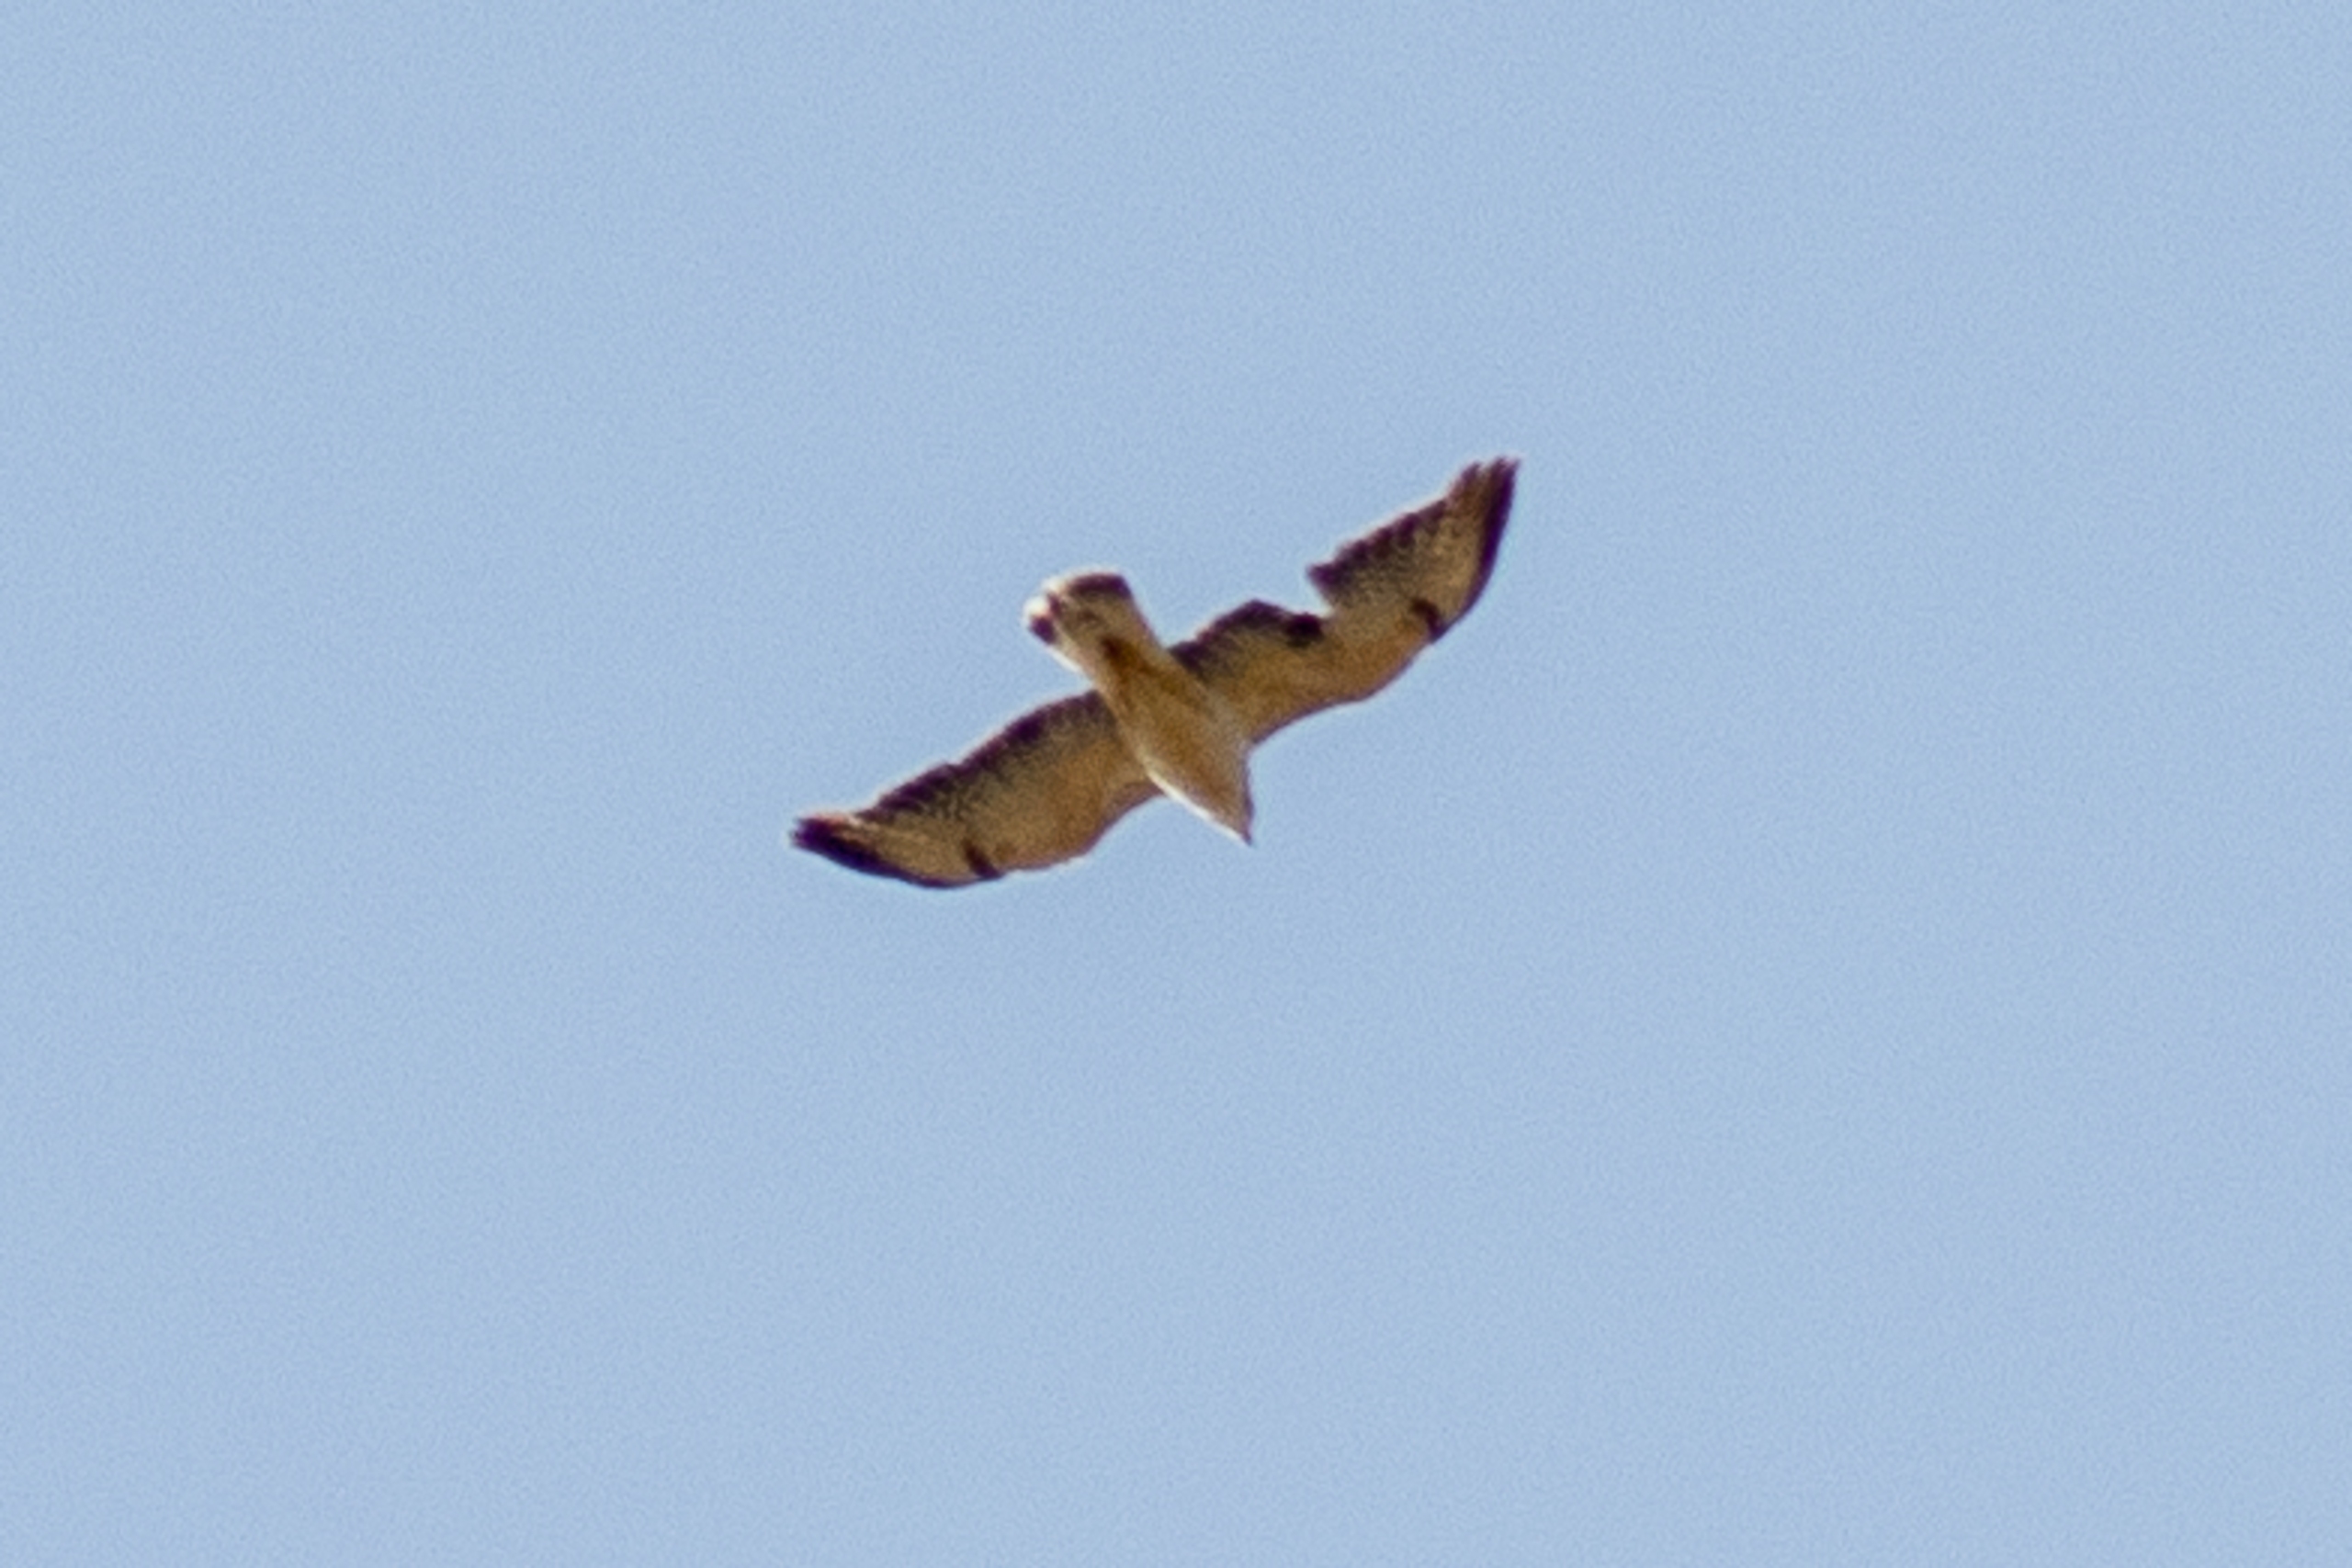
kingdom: Animalia
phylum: Chordata
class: Aves
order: Accipitriformes
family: Accipitridae
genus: Buteo
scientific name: Buteo buteo
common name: Musvåge
